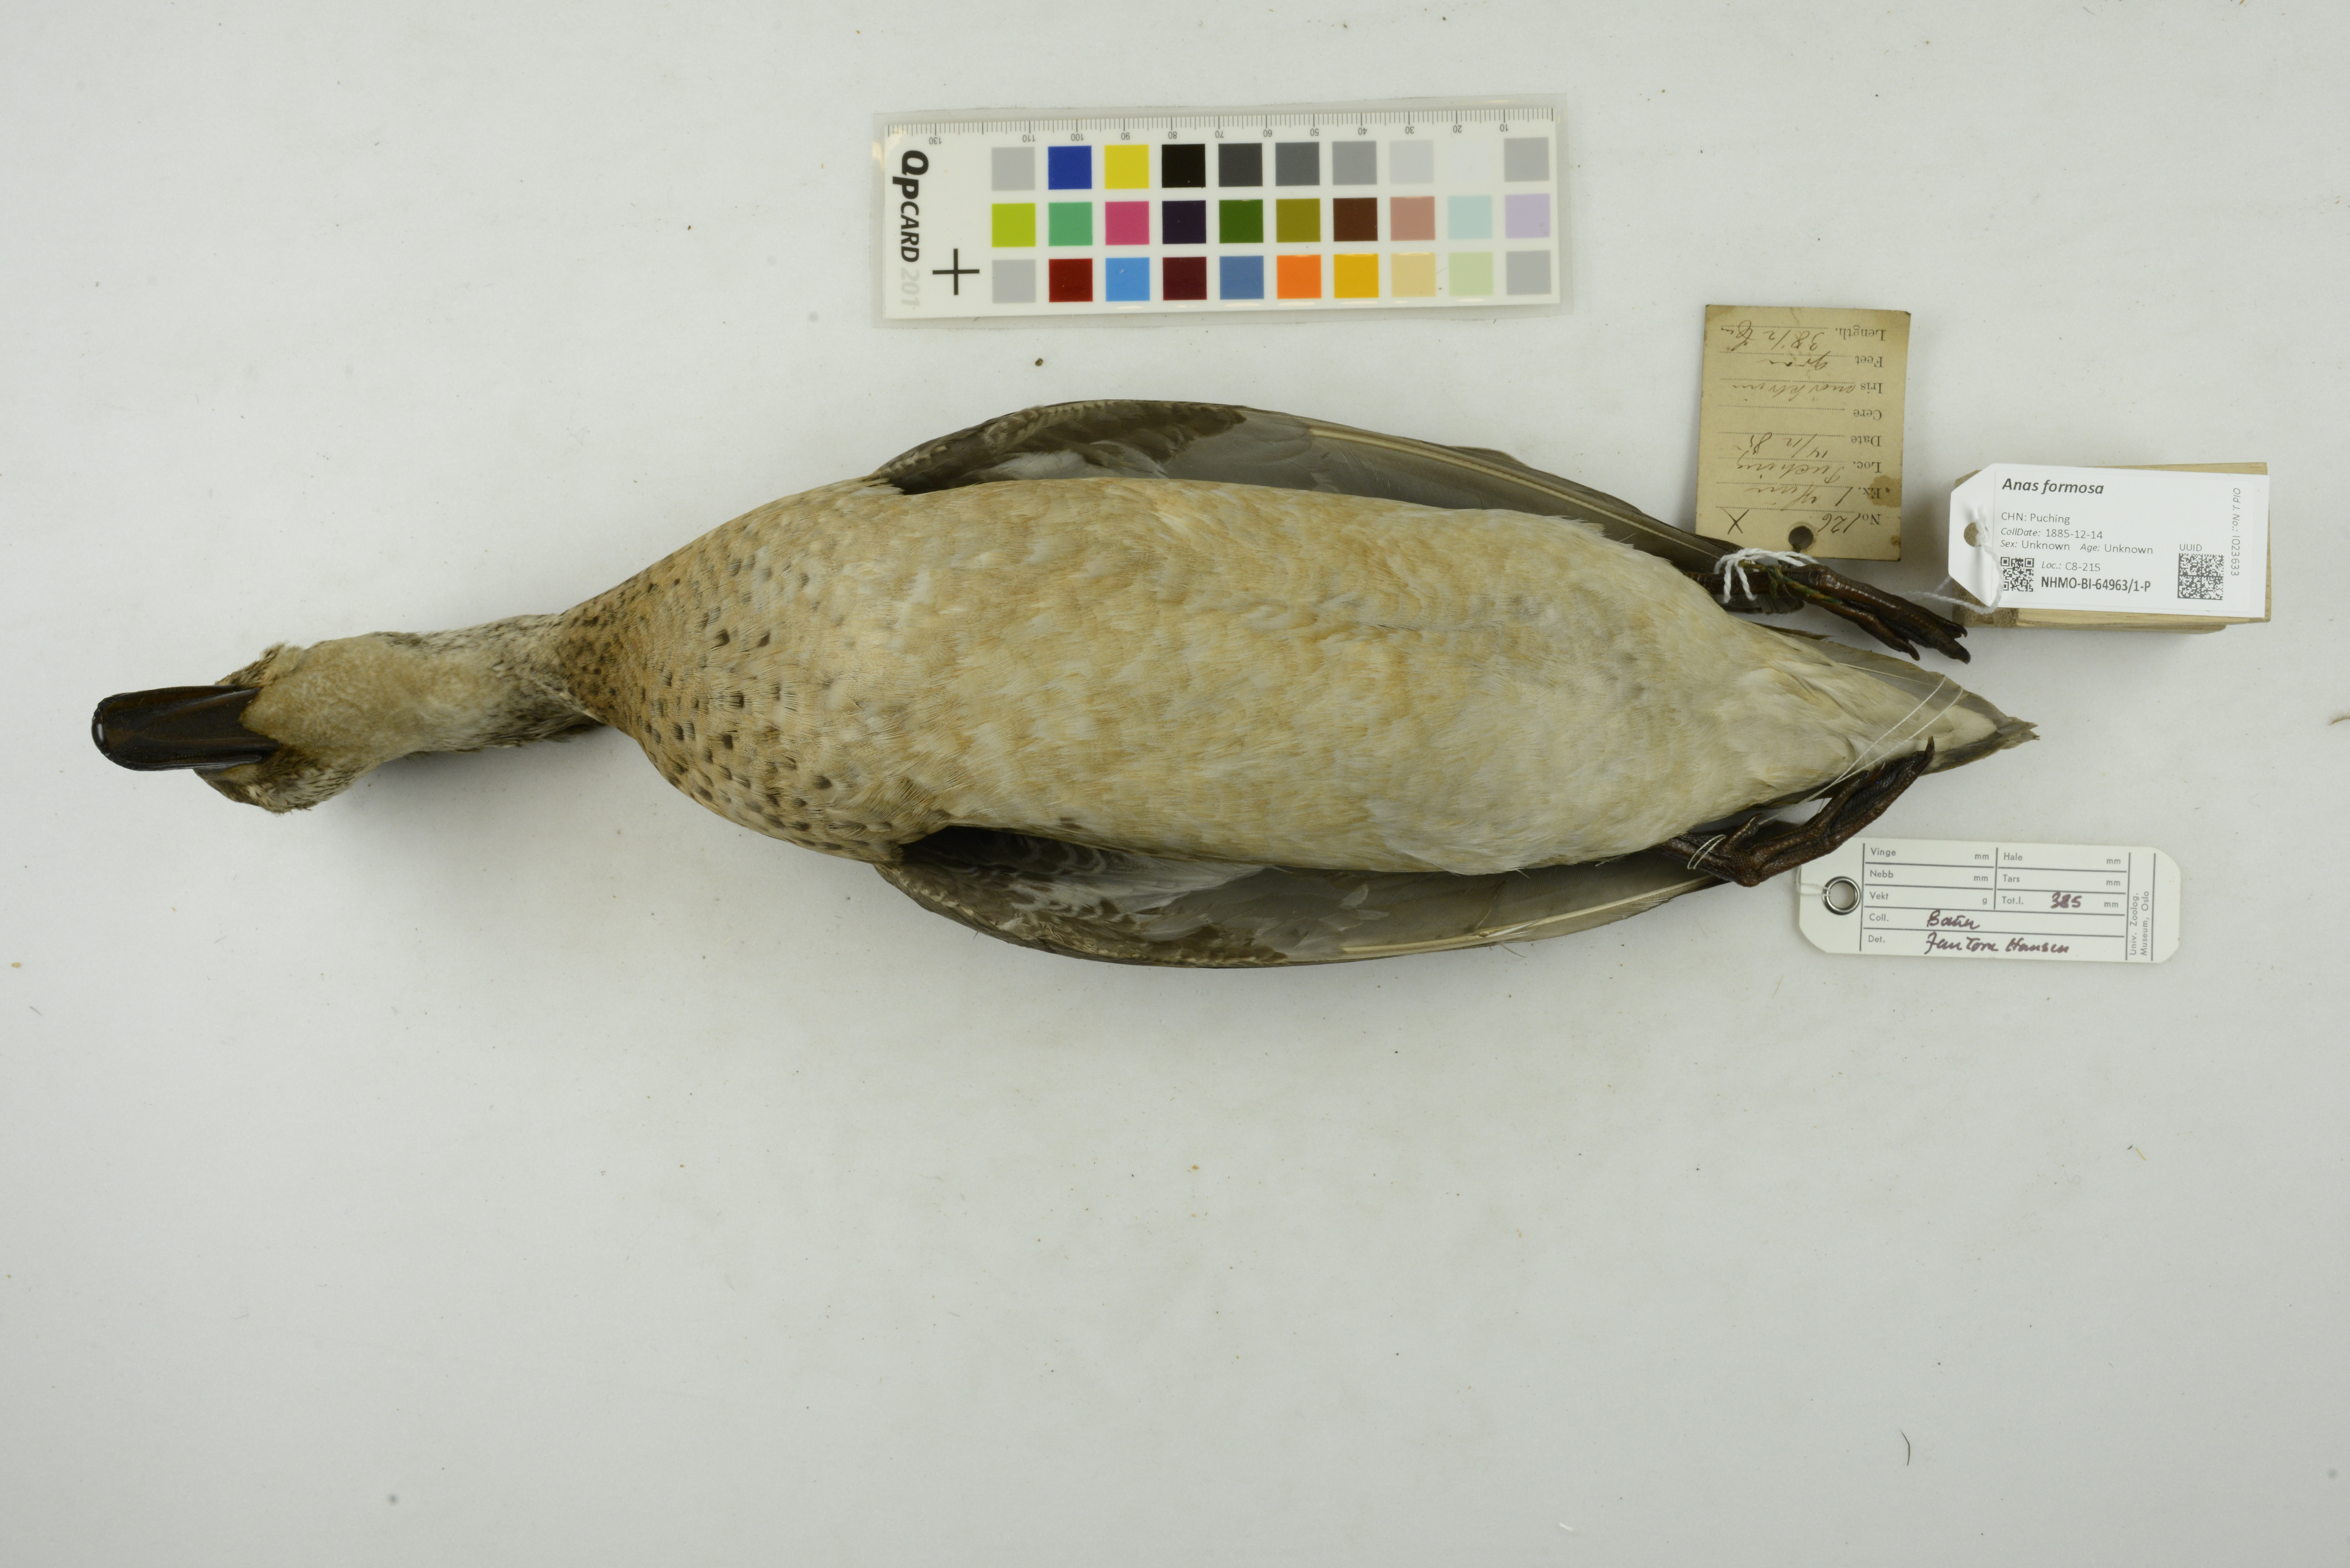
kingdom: Animalia
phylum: Chordata
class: Aves
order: Anseriformes
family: Anatidae
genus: Sibirionetta
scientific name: Sibirionetta formosa
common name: Baikal teal
